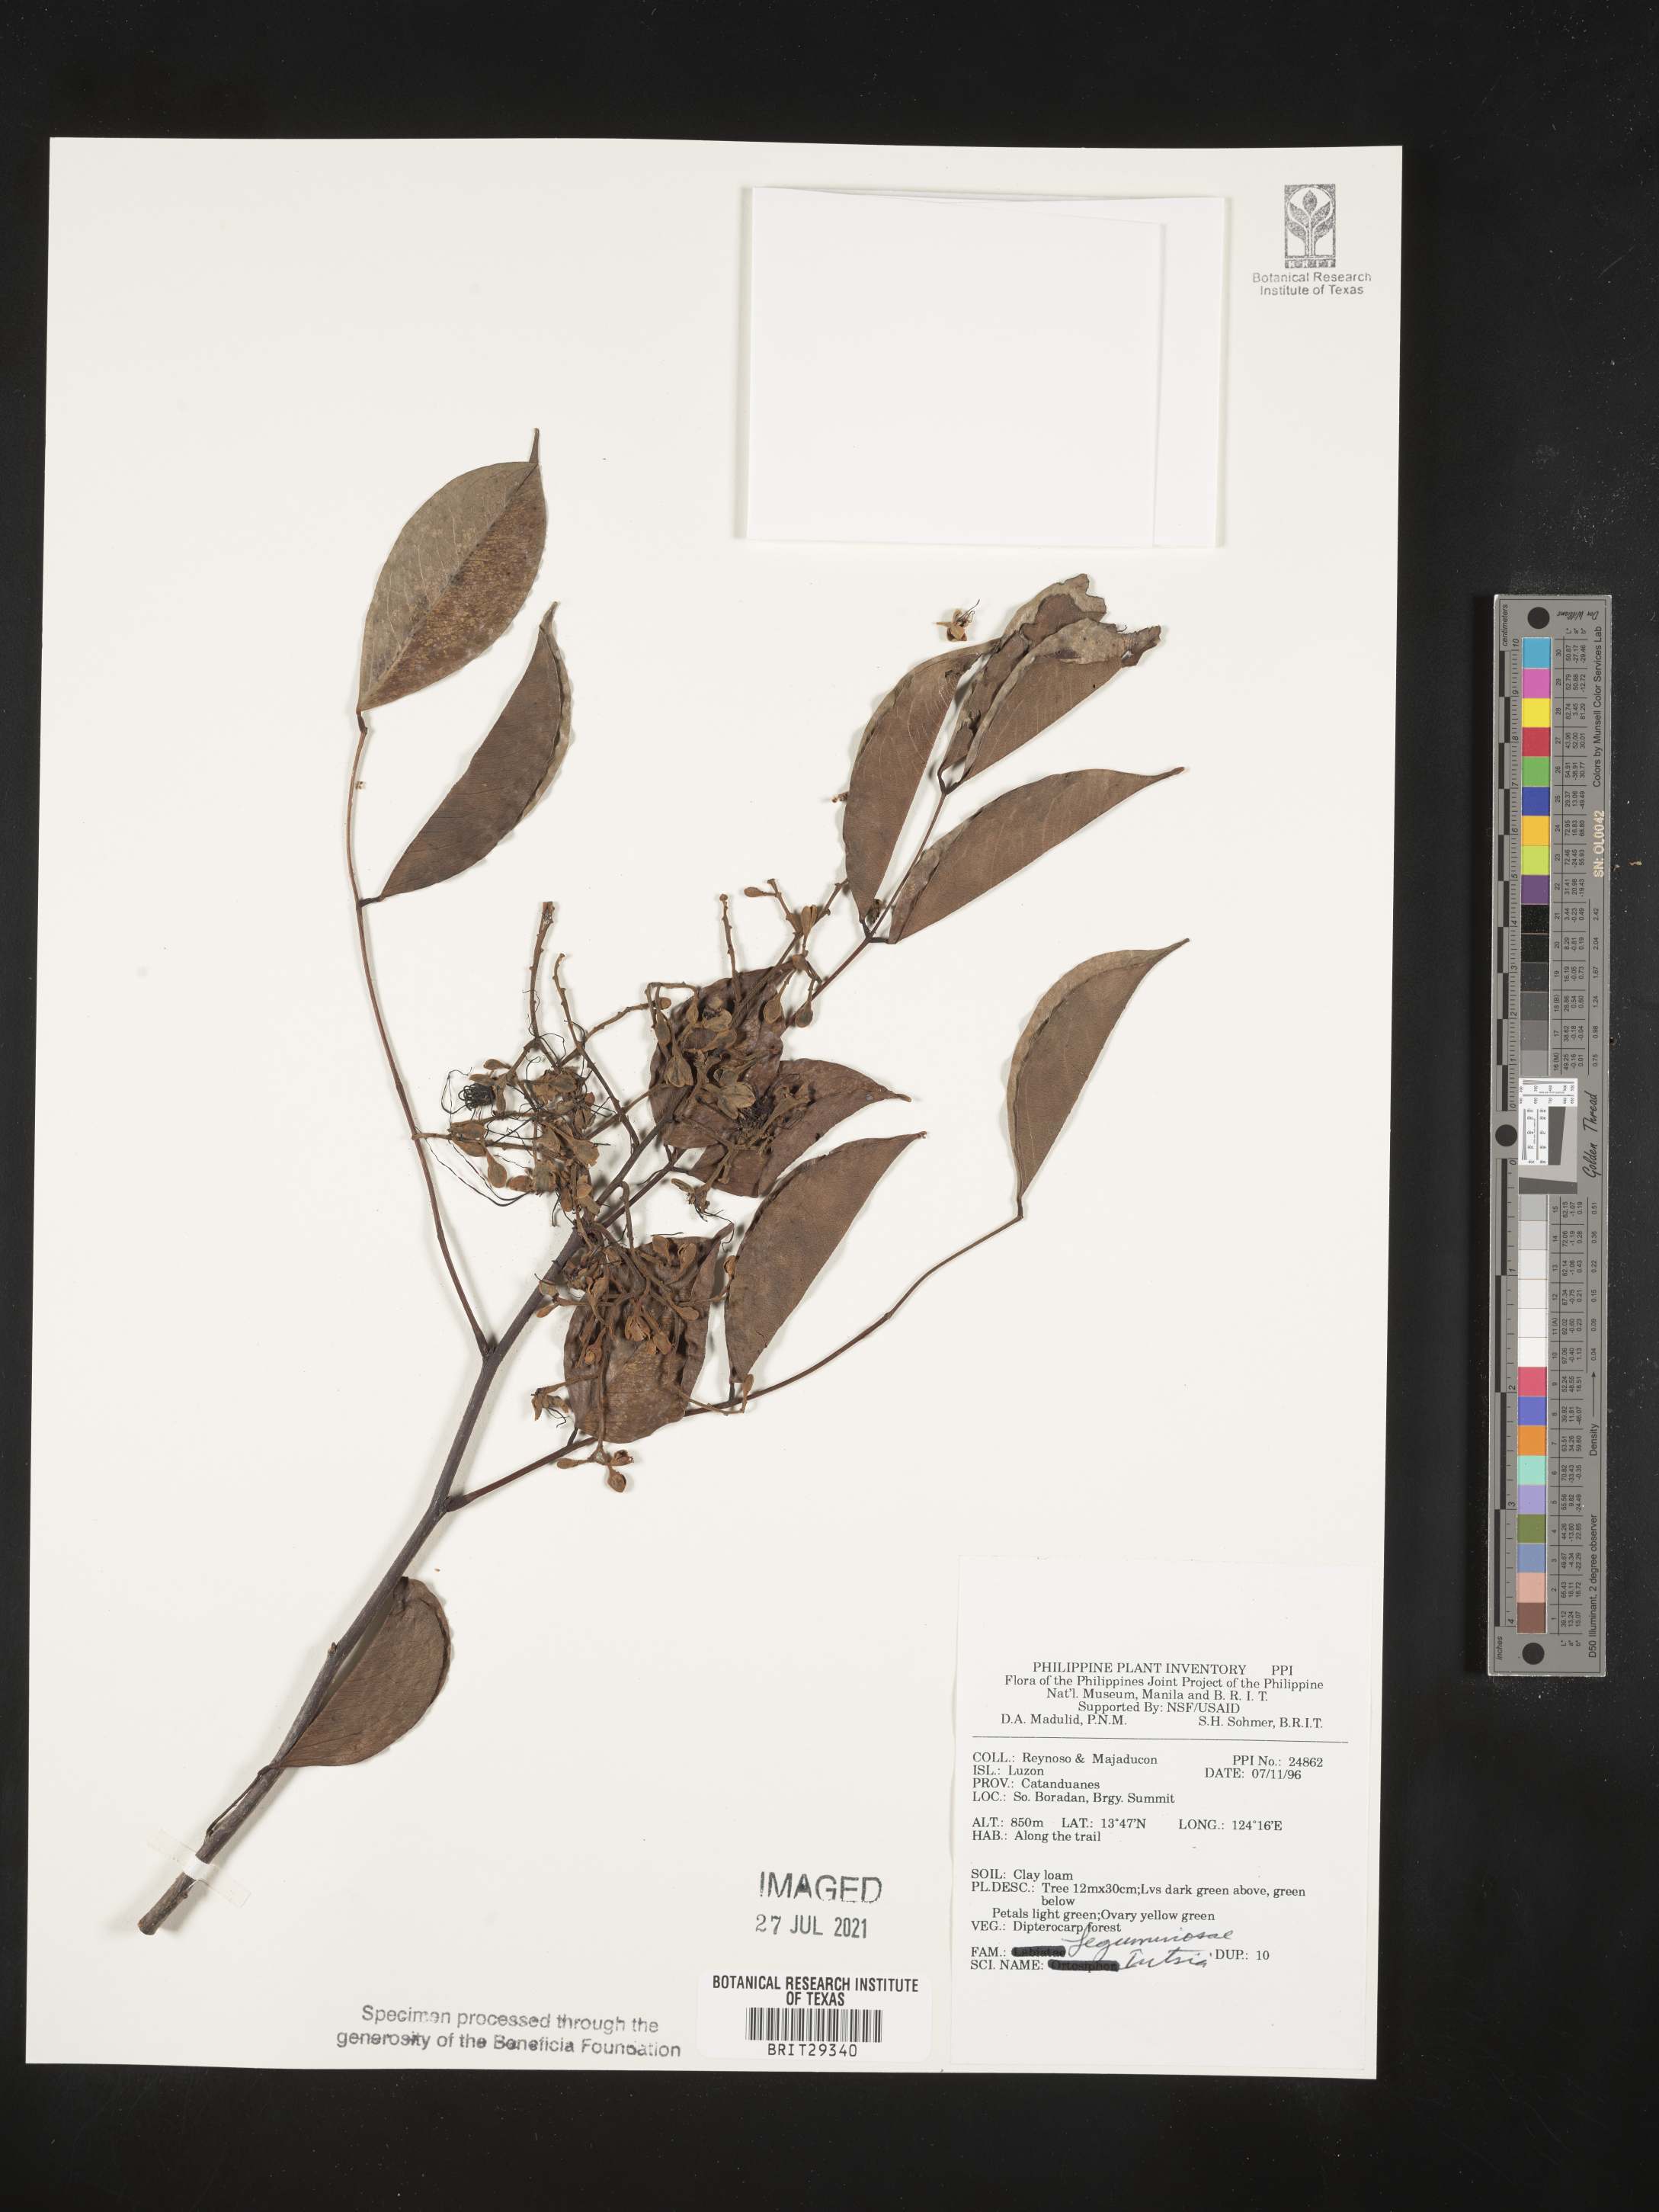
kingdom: Plantae
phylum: Tracheophyta
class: Magnoliopsida
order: Fabales
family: Fabaceae
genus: Intsia
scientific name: Intsia
